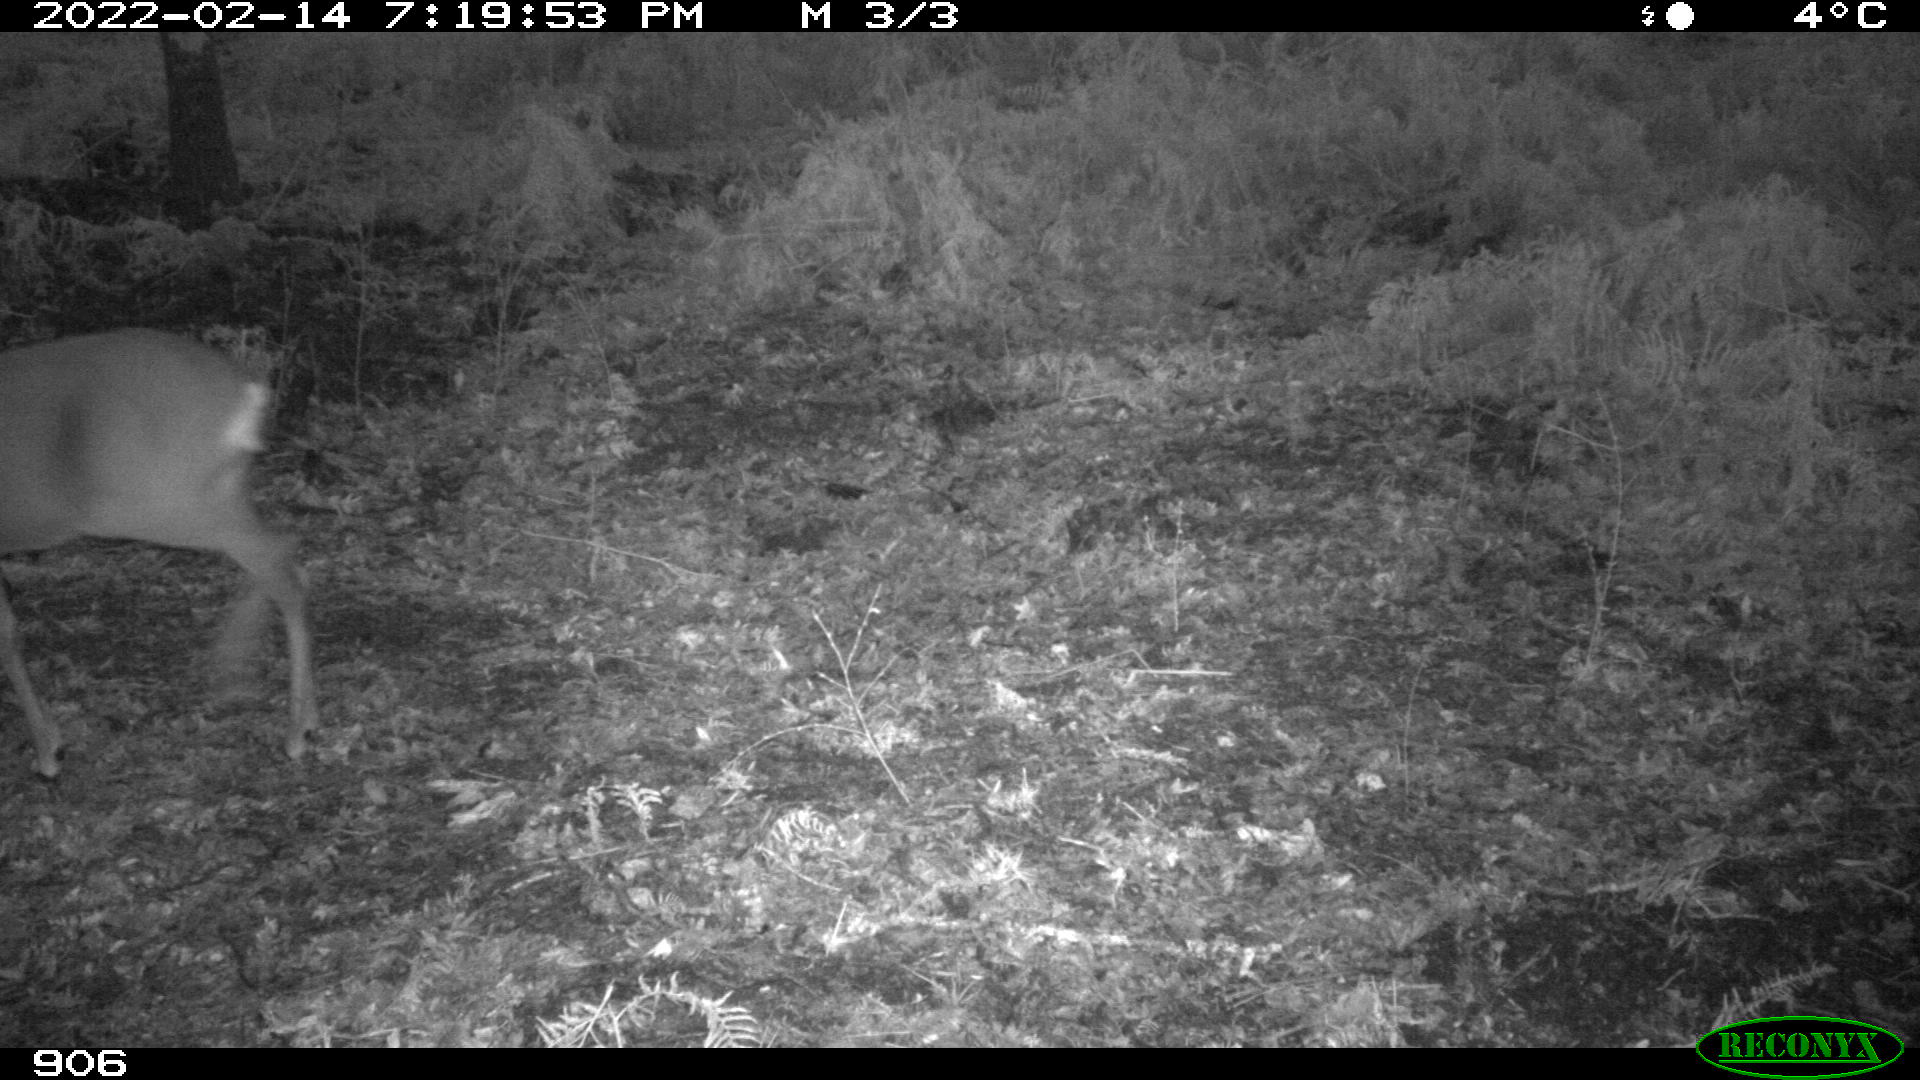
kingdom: Animalia
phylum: Chordata
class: Mammalia
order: Artiodactyla
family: Cervidae
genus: Capreolus
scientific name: Capreolus capreolus
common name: Western roe deer
